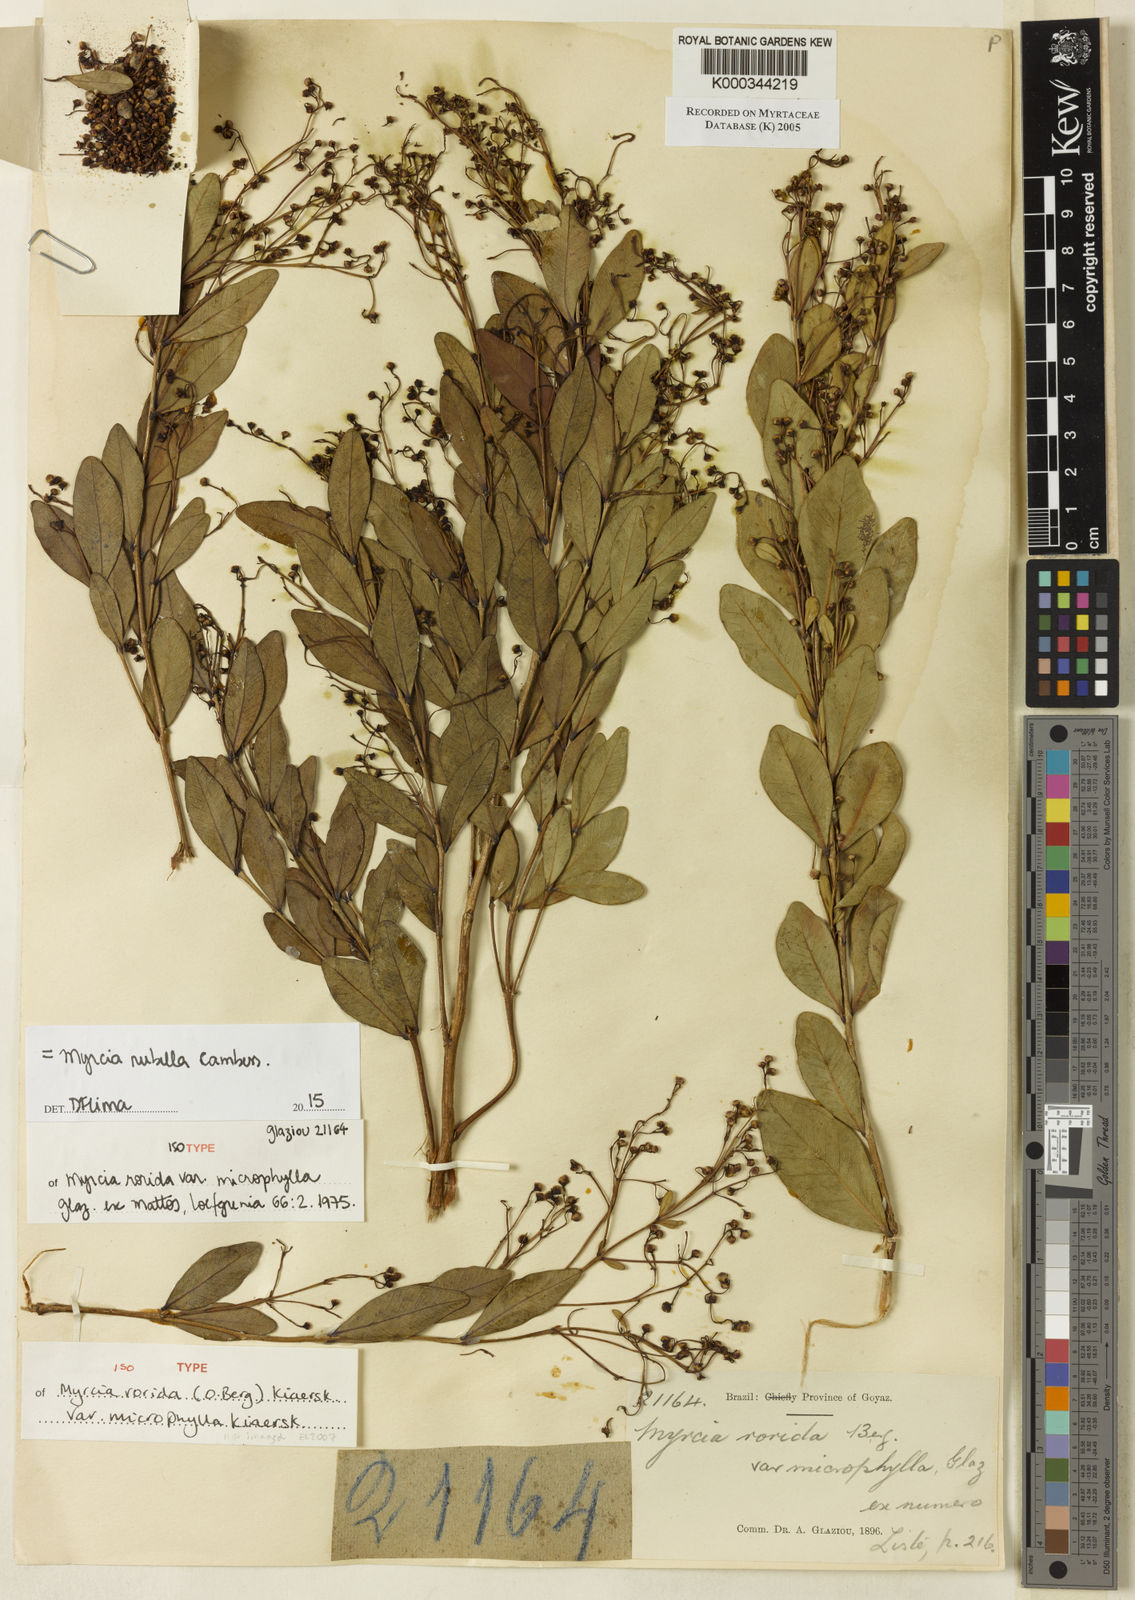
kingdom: Plantae
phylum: Tracheophyta
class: Magnoliopsida
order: Myrtales
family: Myrtaceae
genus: Myrcia
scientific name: Myrcia rubella
